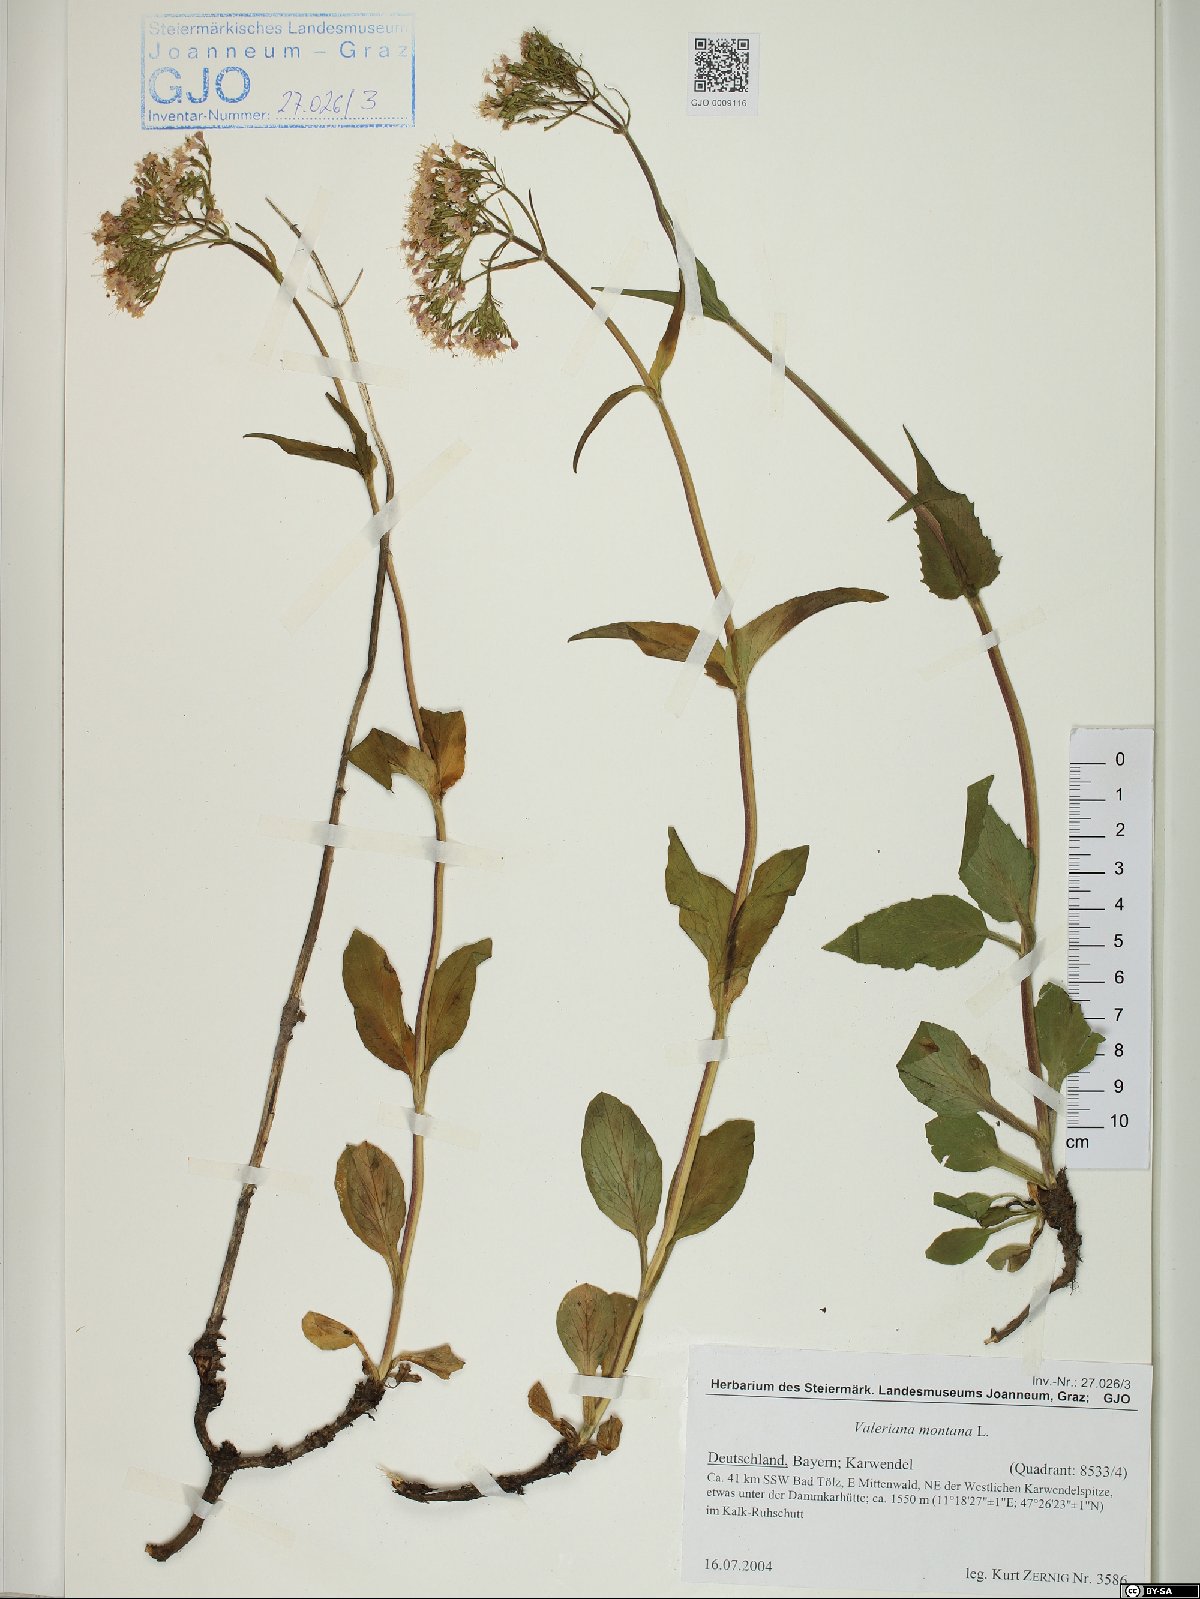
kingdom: Plantae
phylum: Tracheophyta
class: Magnoliopsida
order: Dipsacales
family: Caprifoliaceae
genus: Valeriana
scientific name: Valeriana montana
